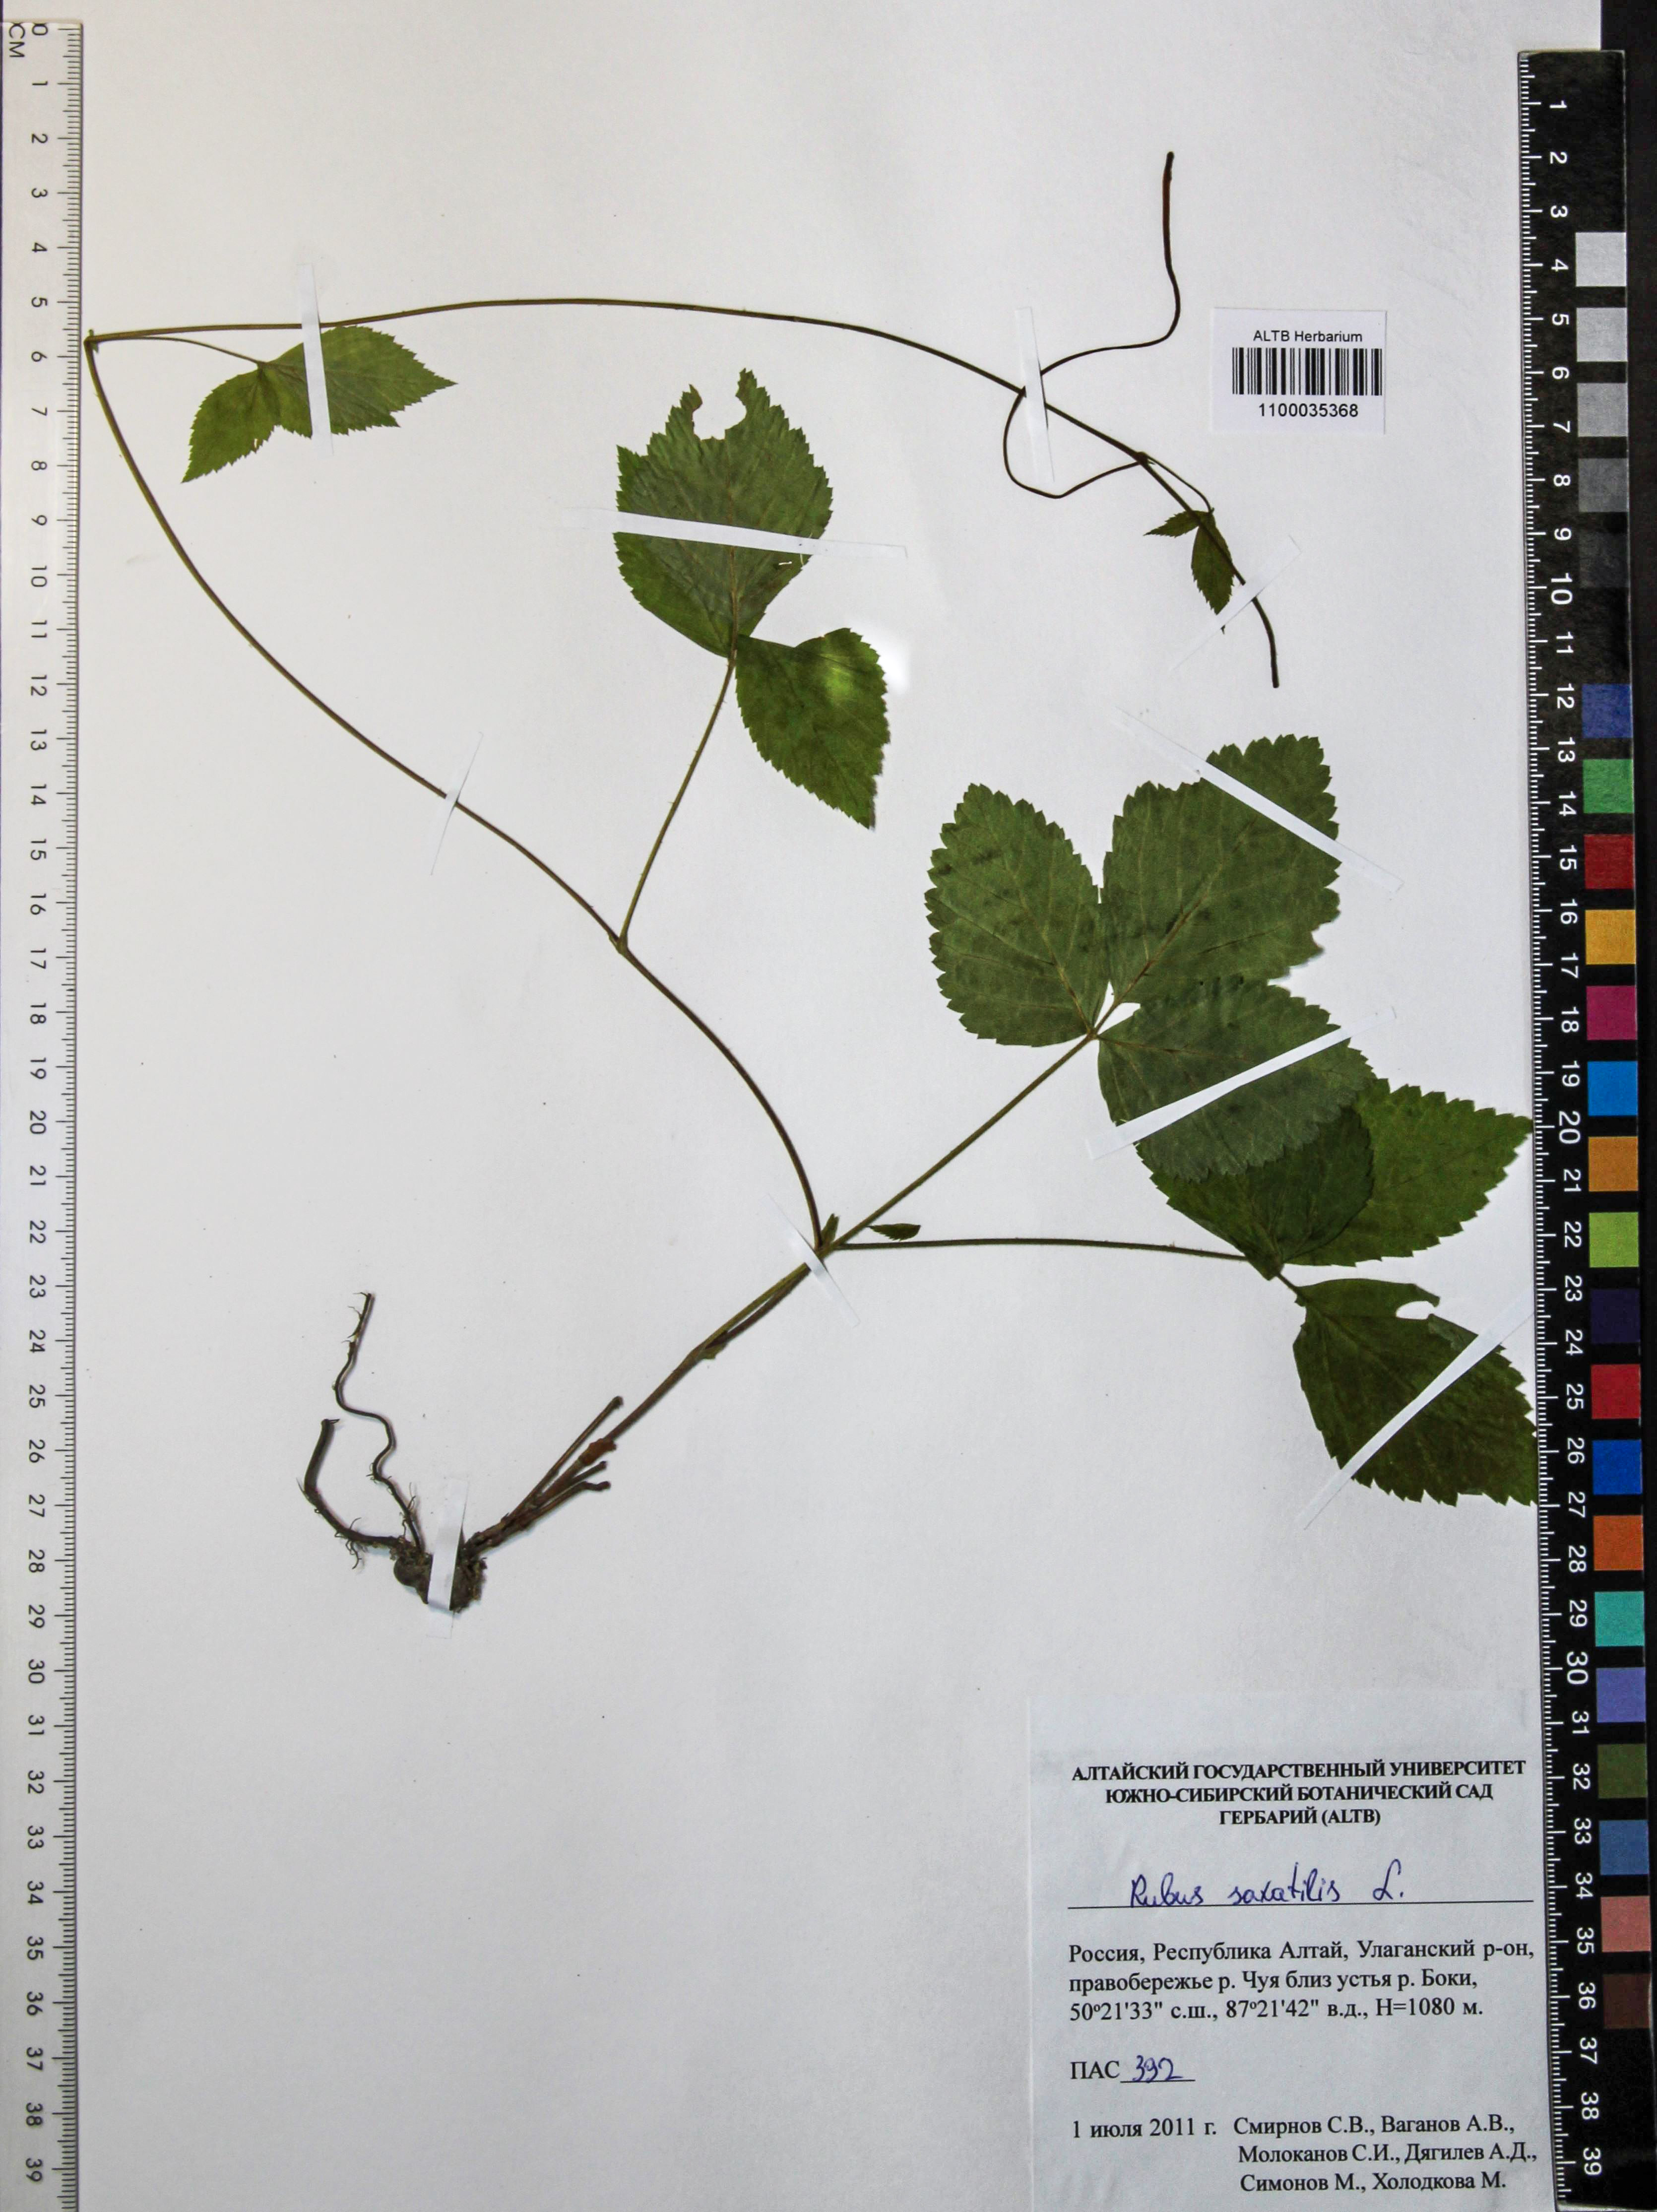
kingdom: Plantae
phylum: Tracheophyta
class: Magnoliopsida
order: Rosales
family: Rosaceae
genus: Rubus
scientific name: Rubus saxatilis
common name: Stone bramble
